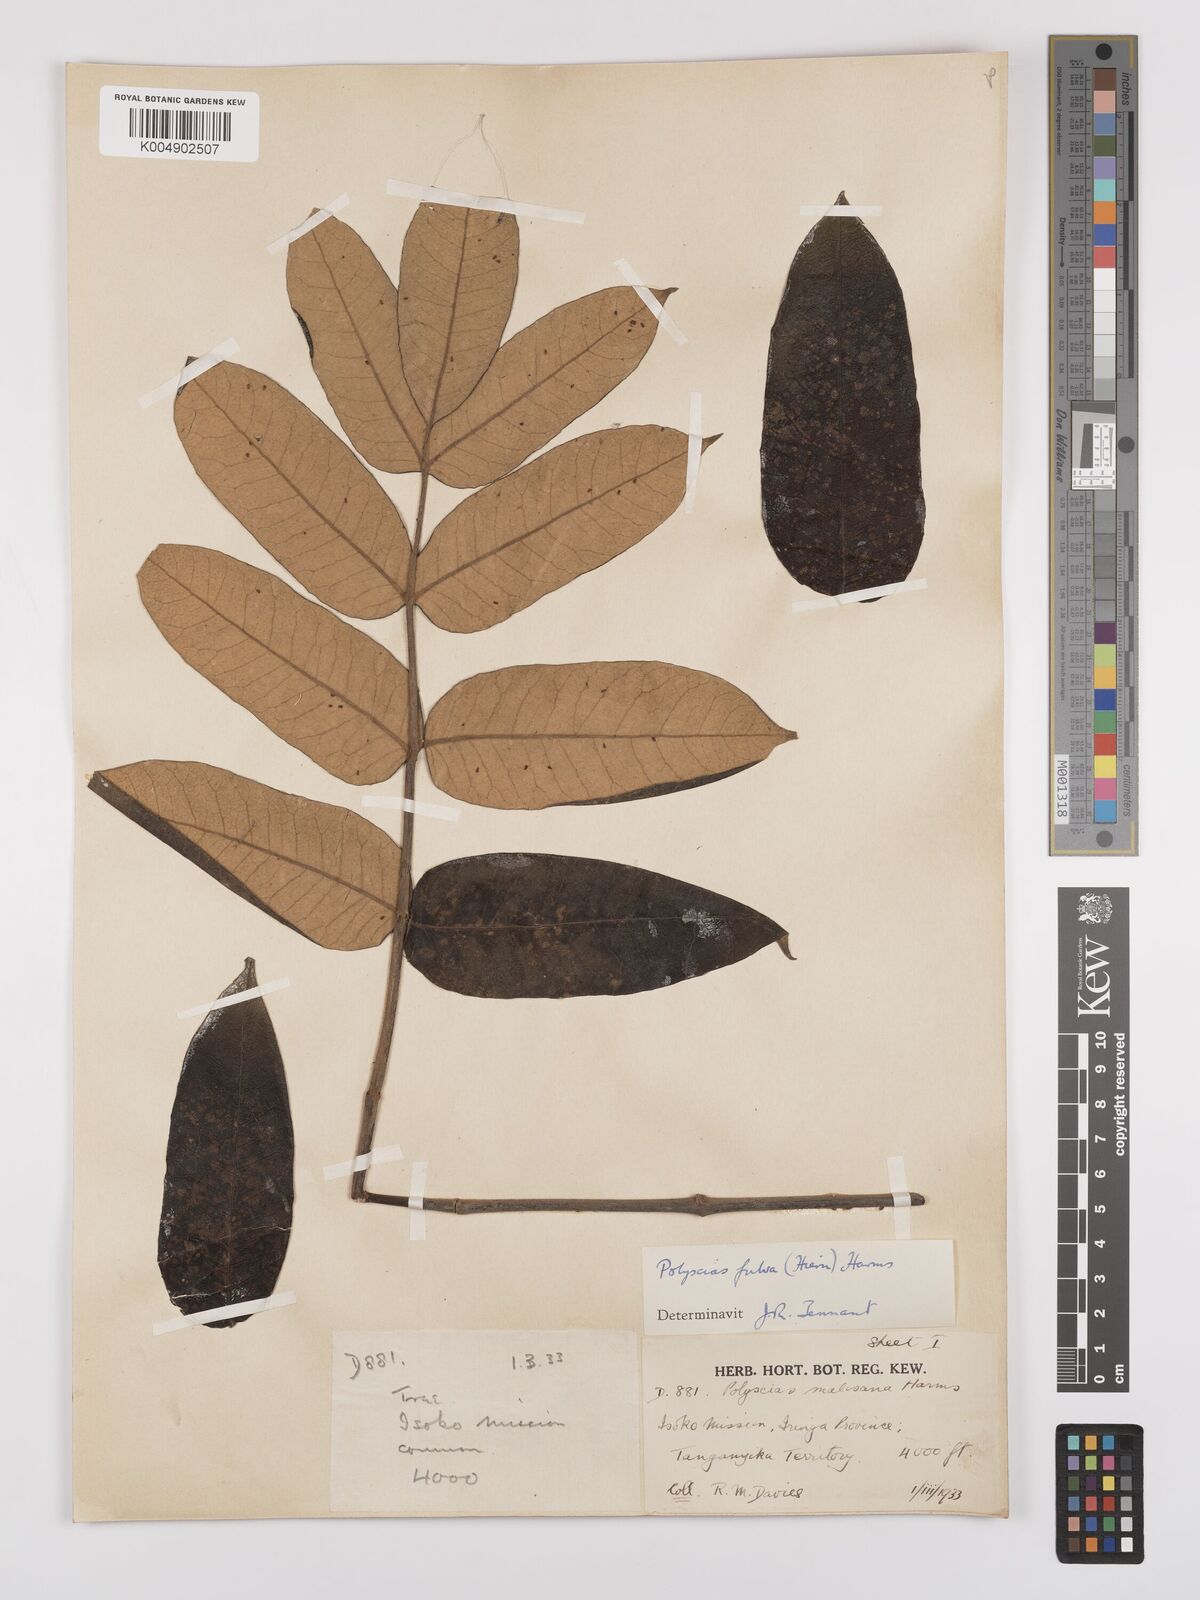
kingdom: Plantae
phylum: Tracheophyta
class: Magnoliopsida
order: Apiales
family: Araliaceae
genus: Polyscias
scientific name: Polyscias fulva
